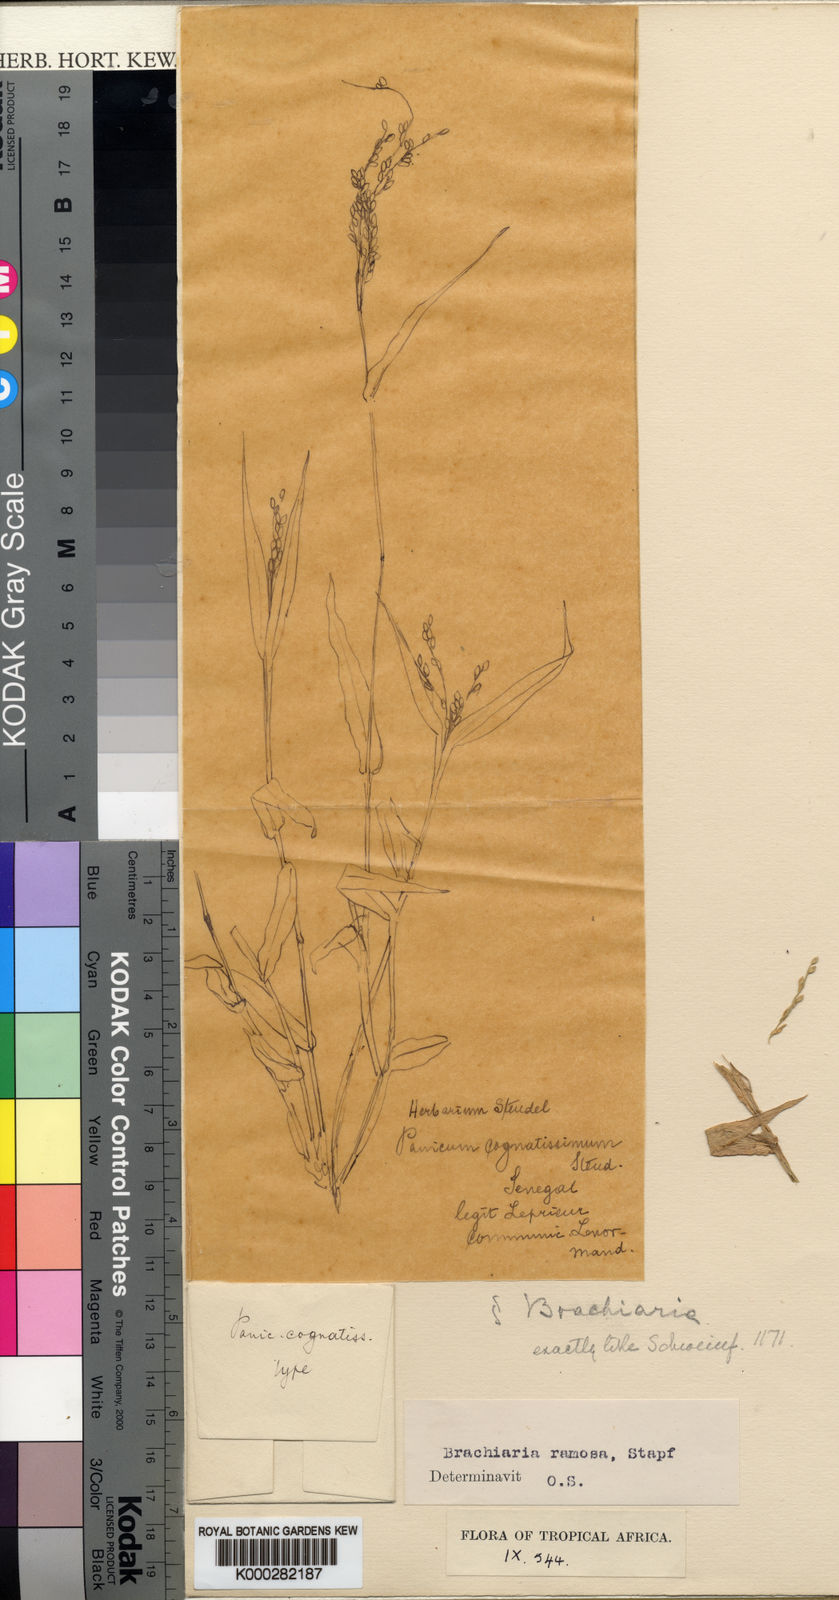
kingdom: Plantae
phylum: Tracheophyta
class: Liliopsida
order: Poales
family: Poaceae
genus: Urochloa
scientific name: Urochloa ramosa
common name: Browntop millet
